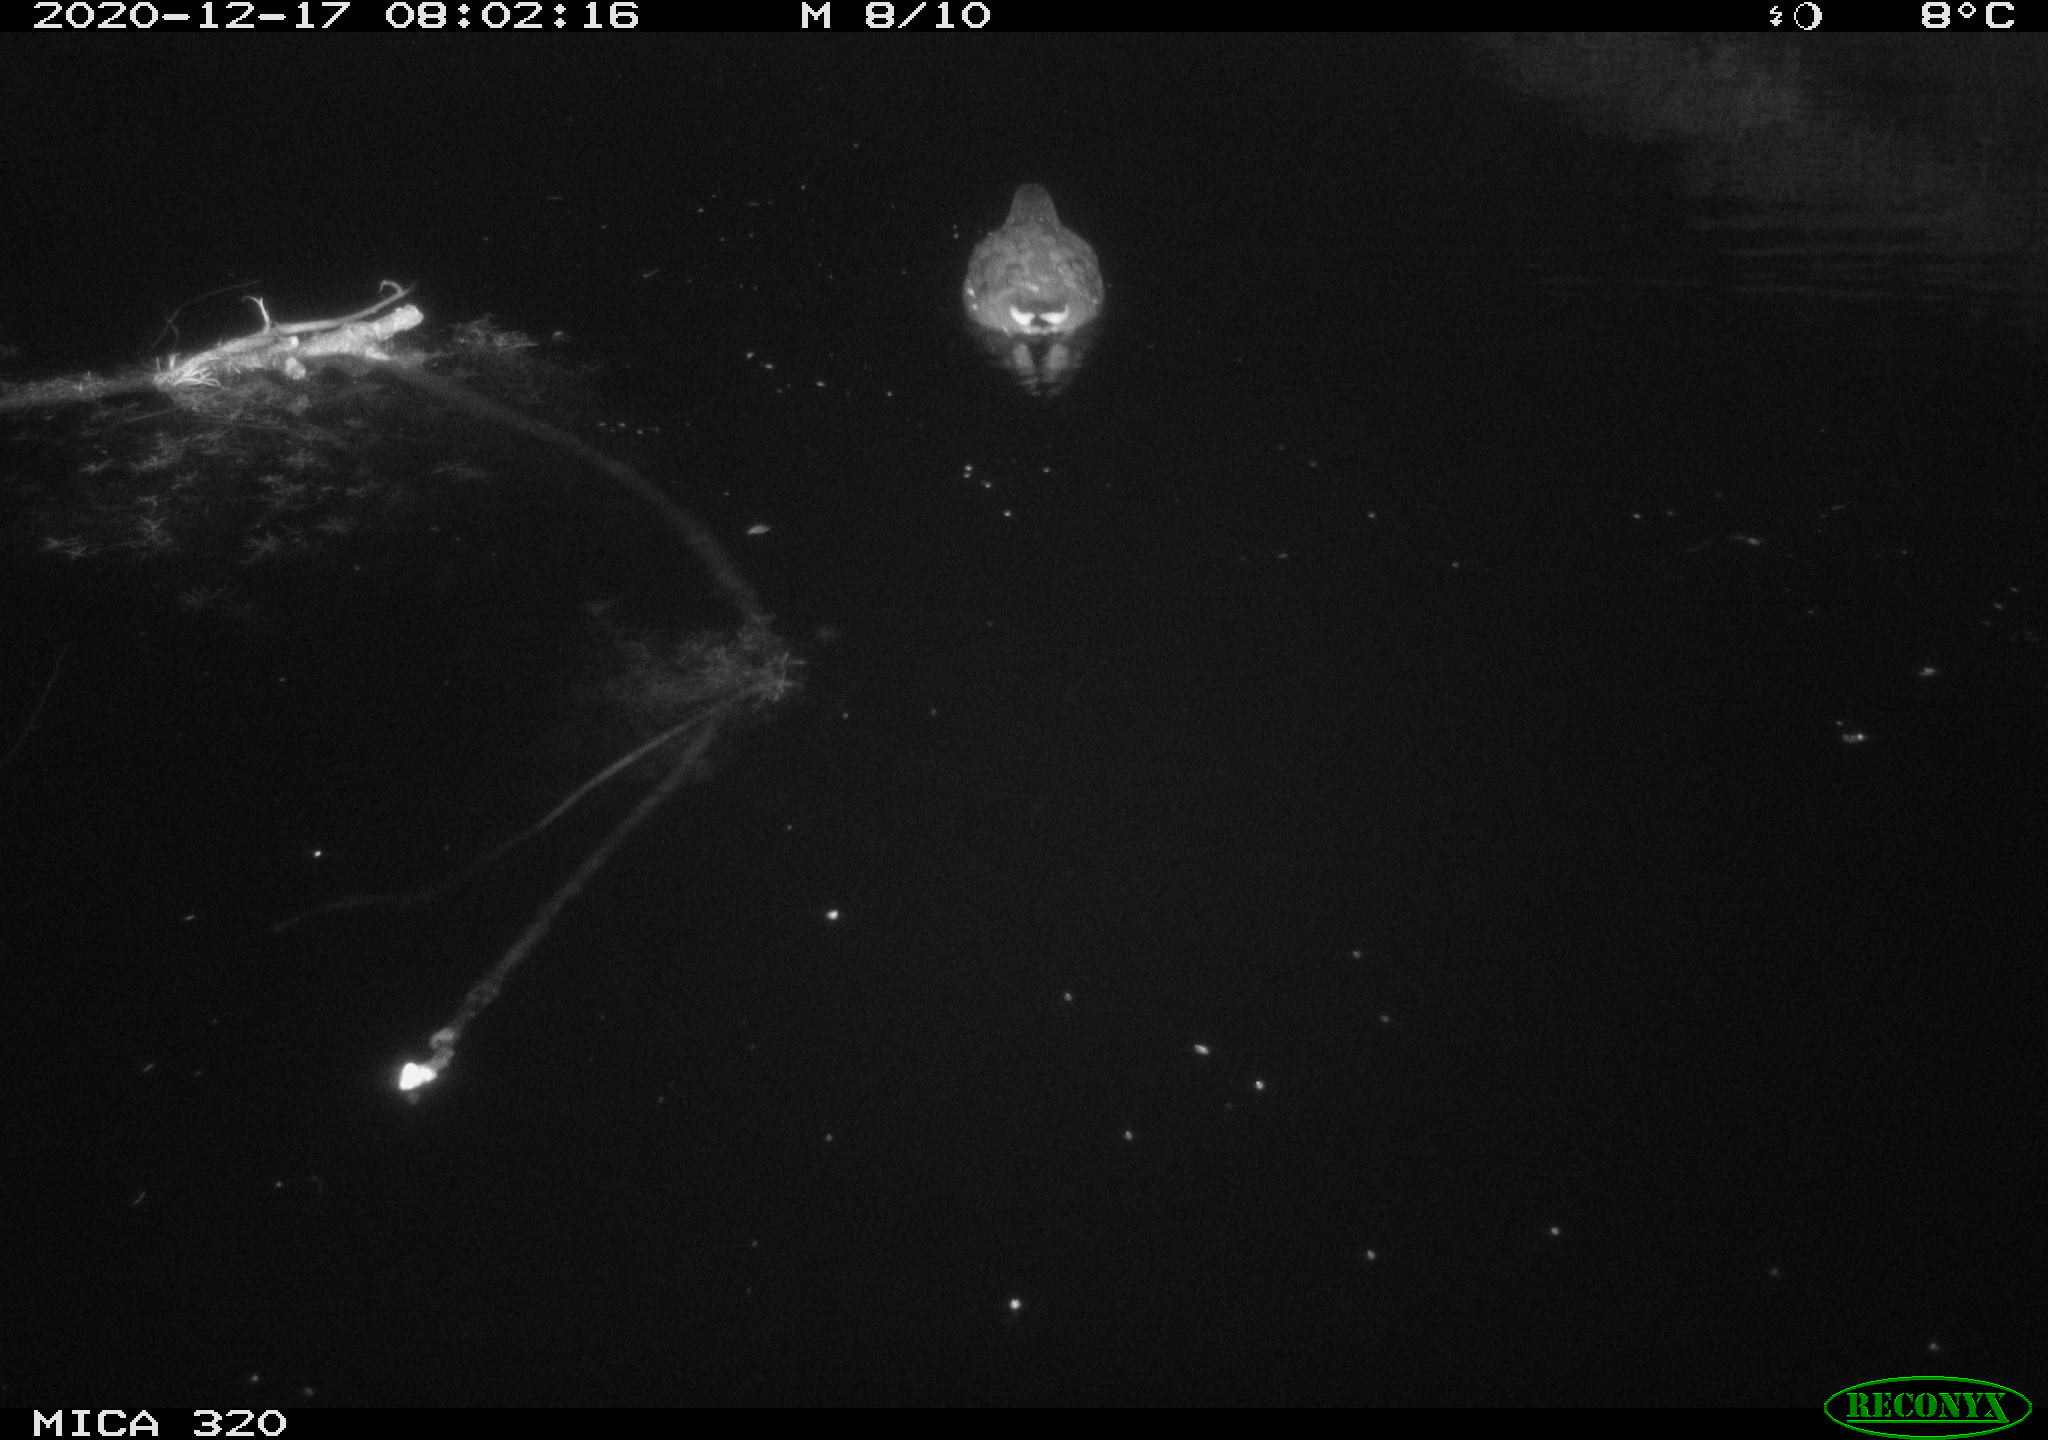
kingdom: Animalia
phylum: Chordata
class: Aves
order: Gruiformes
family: Rallidae
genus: Gallinula
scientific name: Gallinula chloropus
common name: Common moorhen
